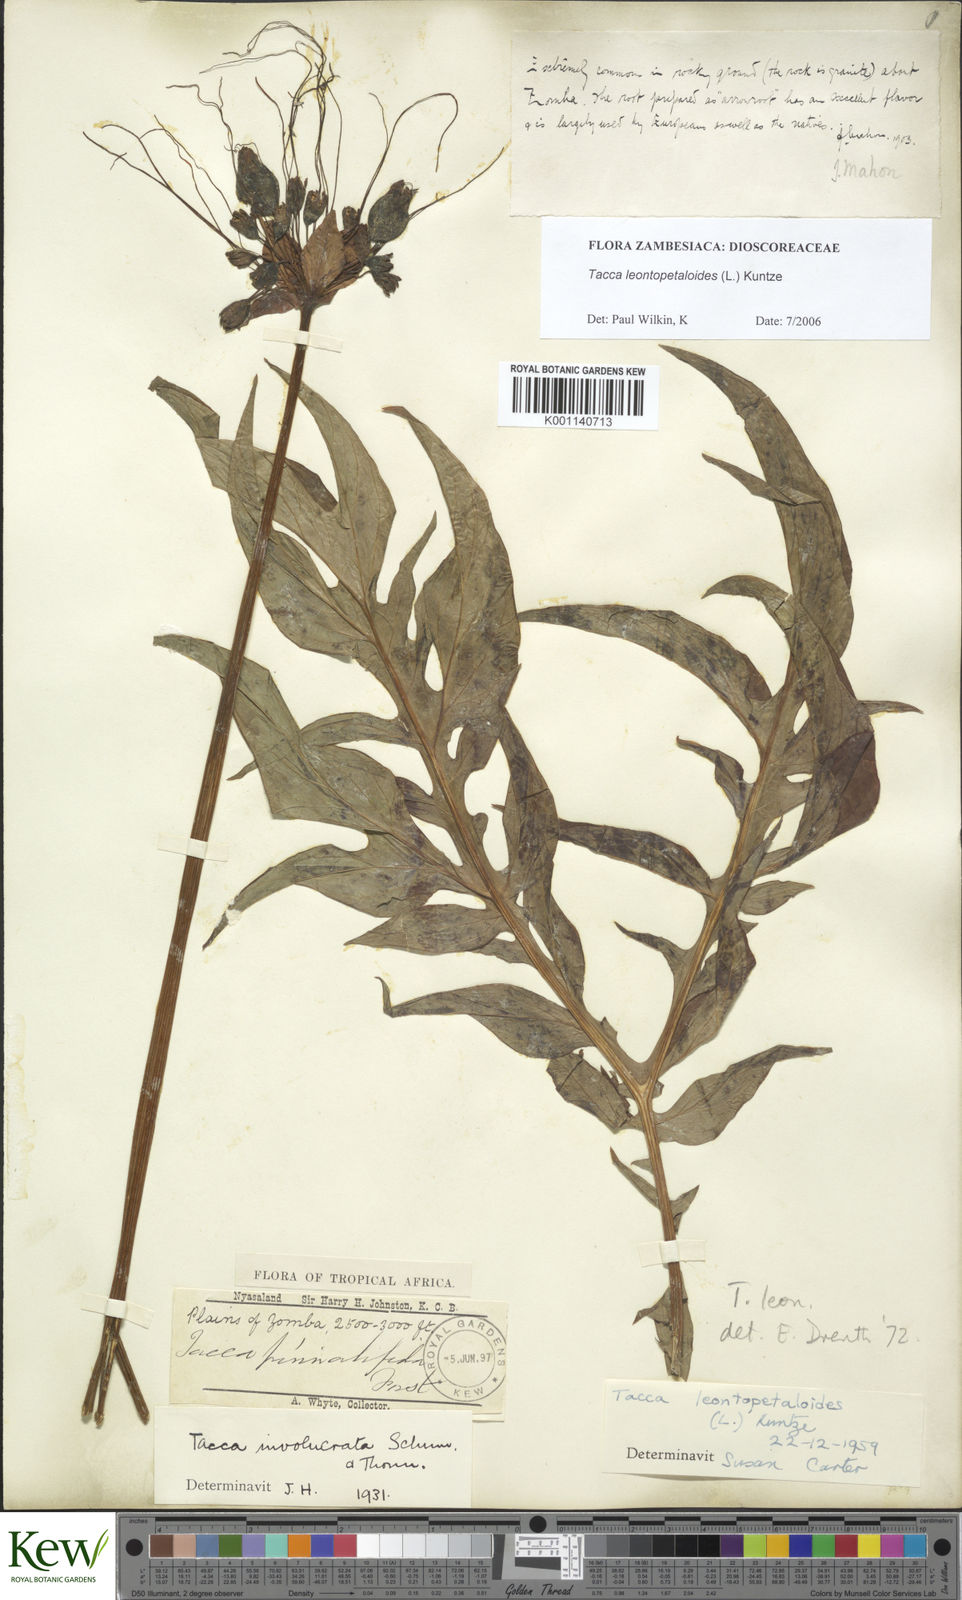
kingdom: Plantae
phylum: Tracheophyta
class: Liliopsida
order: Dioscoreales
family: Dioscoreaceae
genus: Tacca
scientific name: Tacca leontopetaloides
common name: Arrowroot
